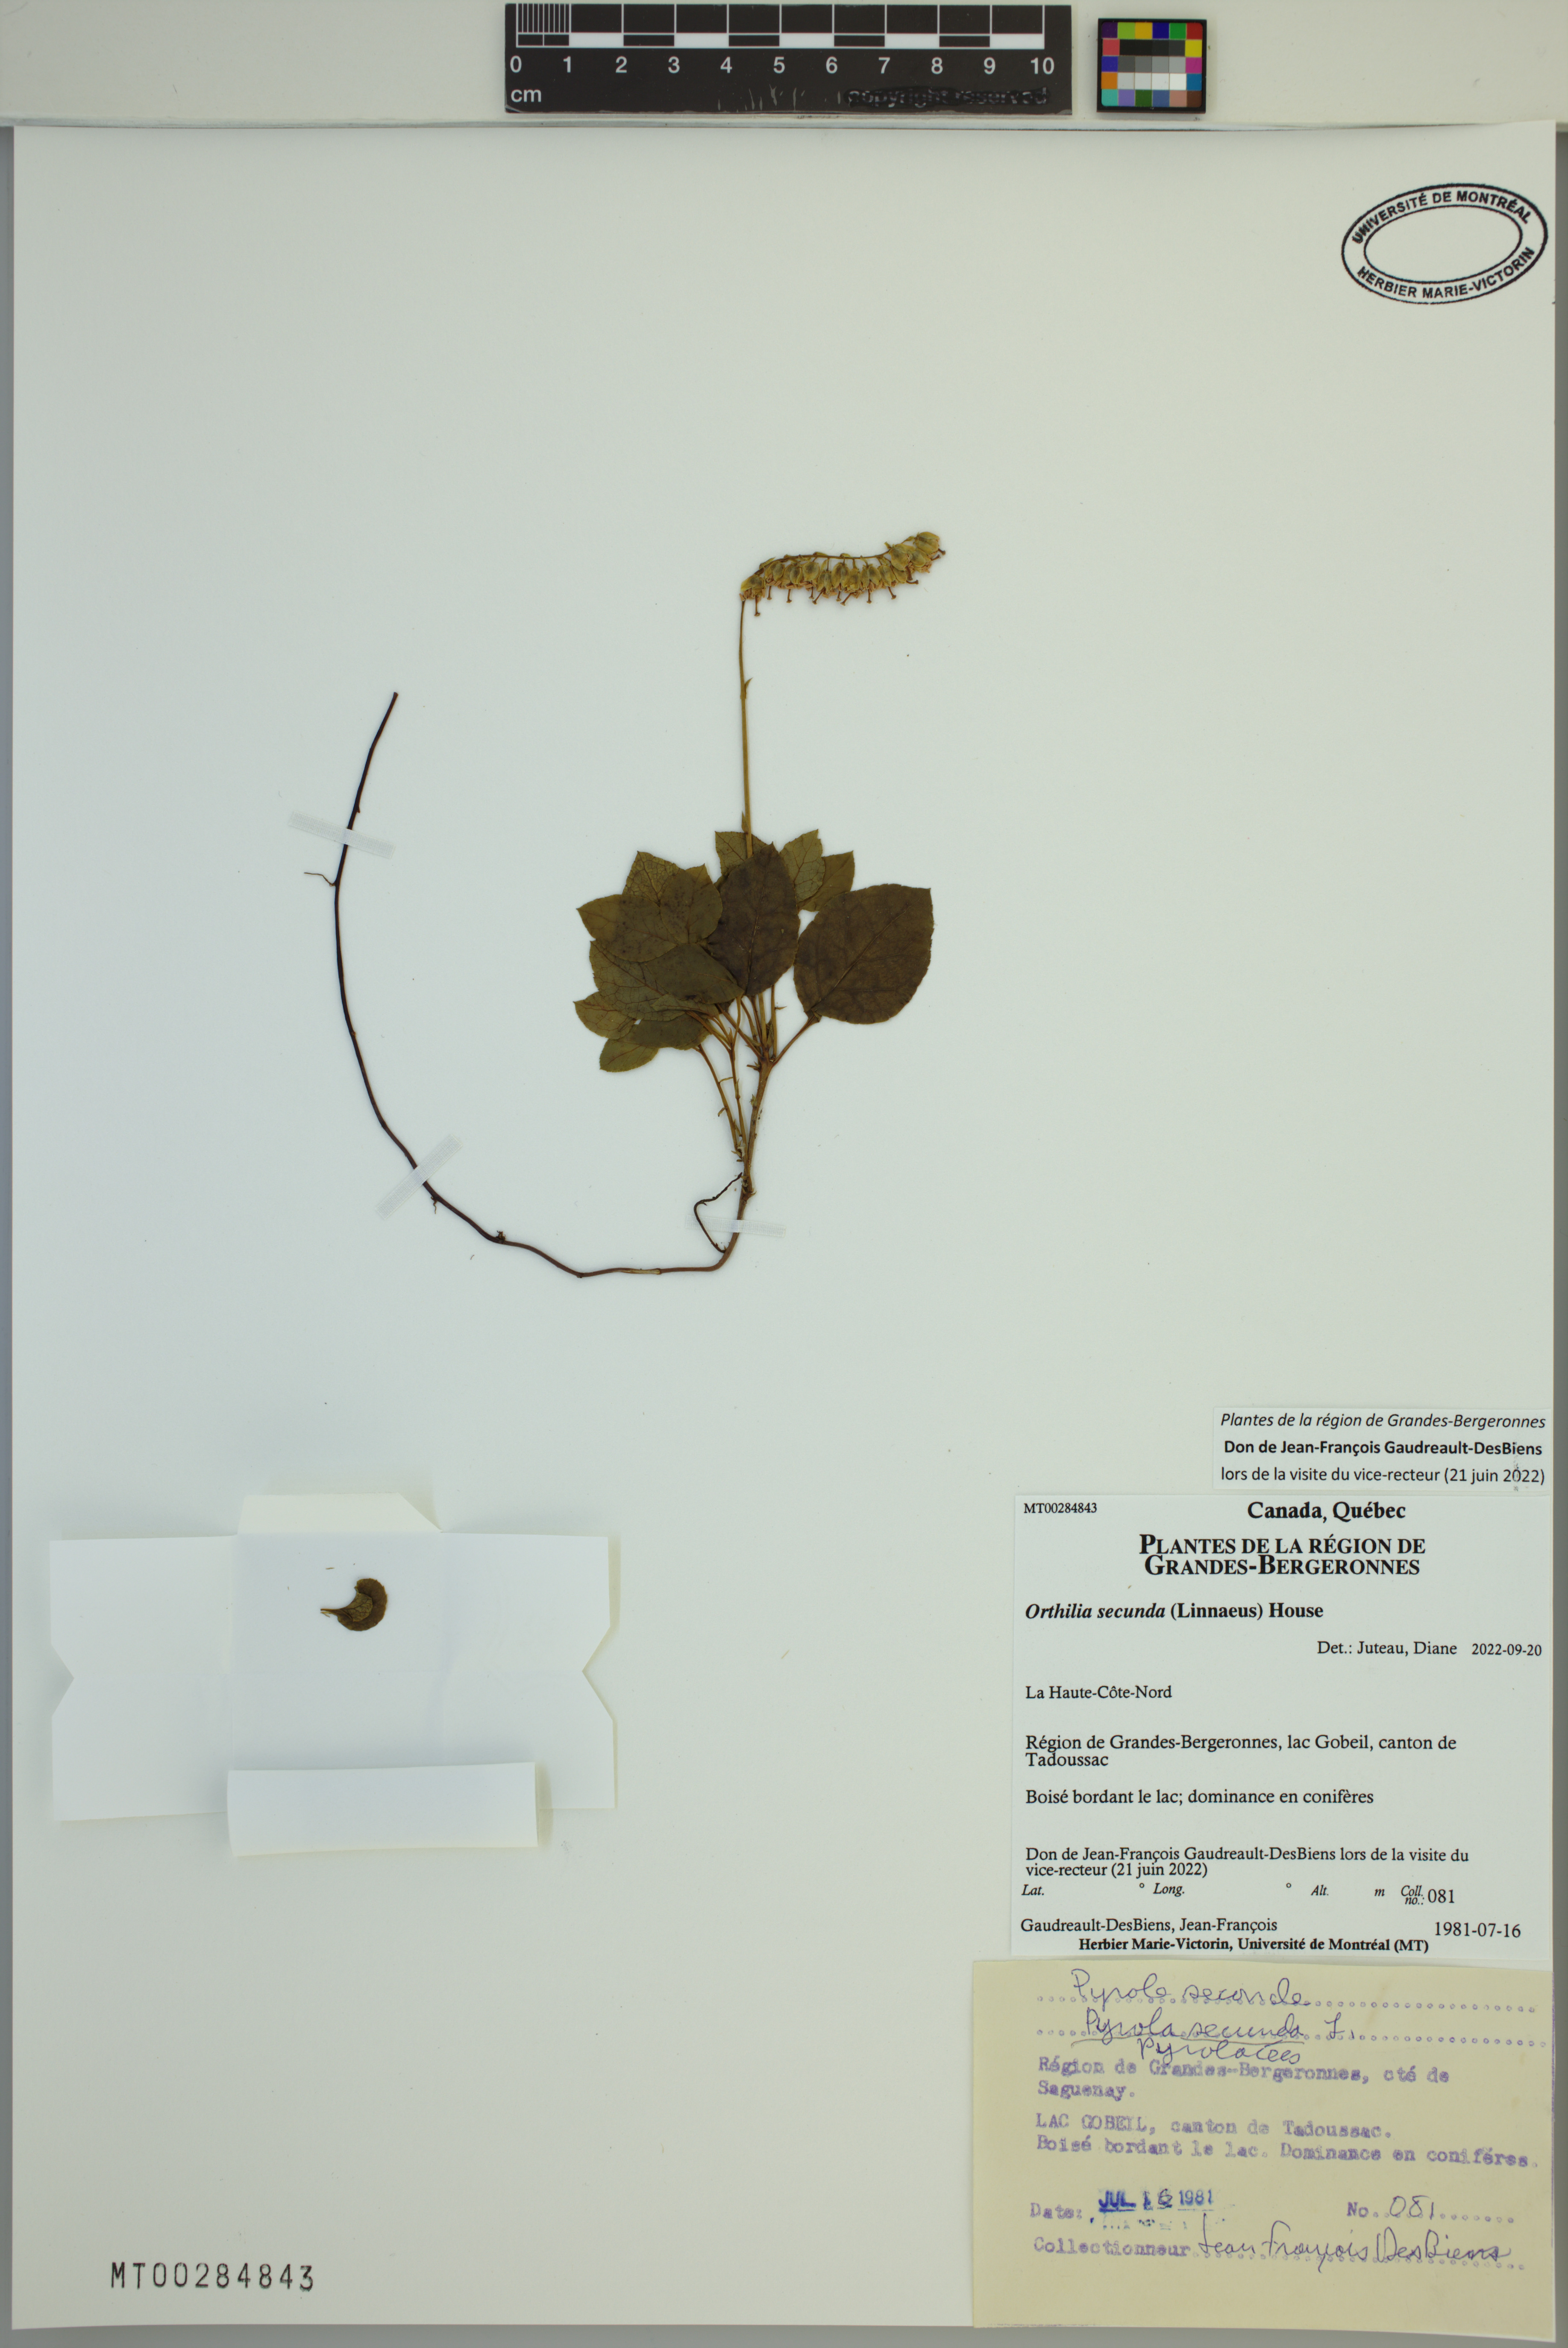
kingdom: Plantae
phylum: Tracheophyta
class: Magnoliopsida
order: Ericales
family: Ericaceae
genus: Orthilia
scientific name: Orthilia secunda
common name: One-sided orthilia
